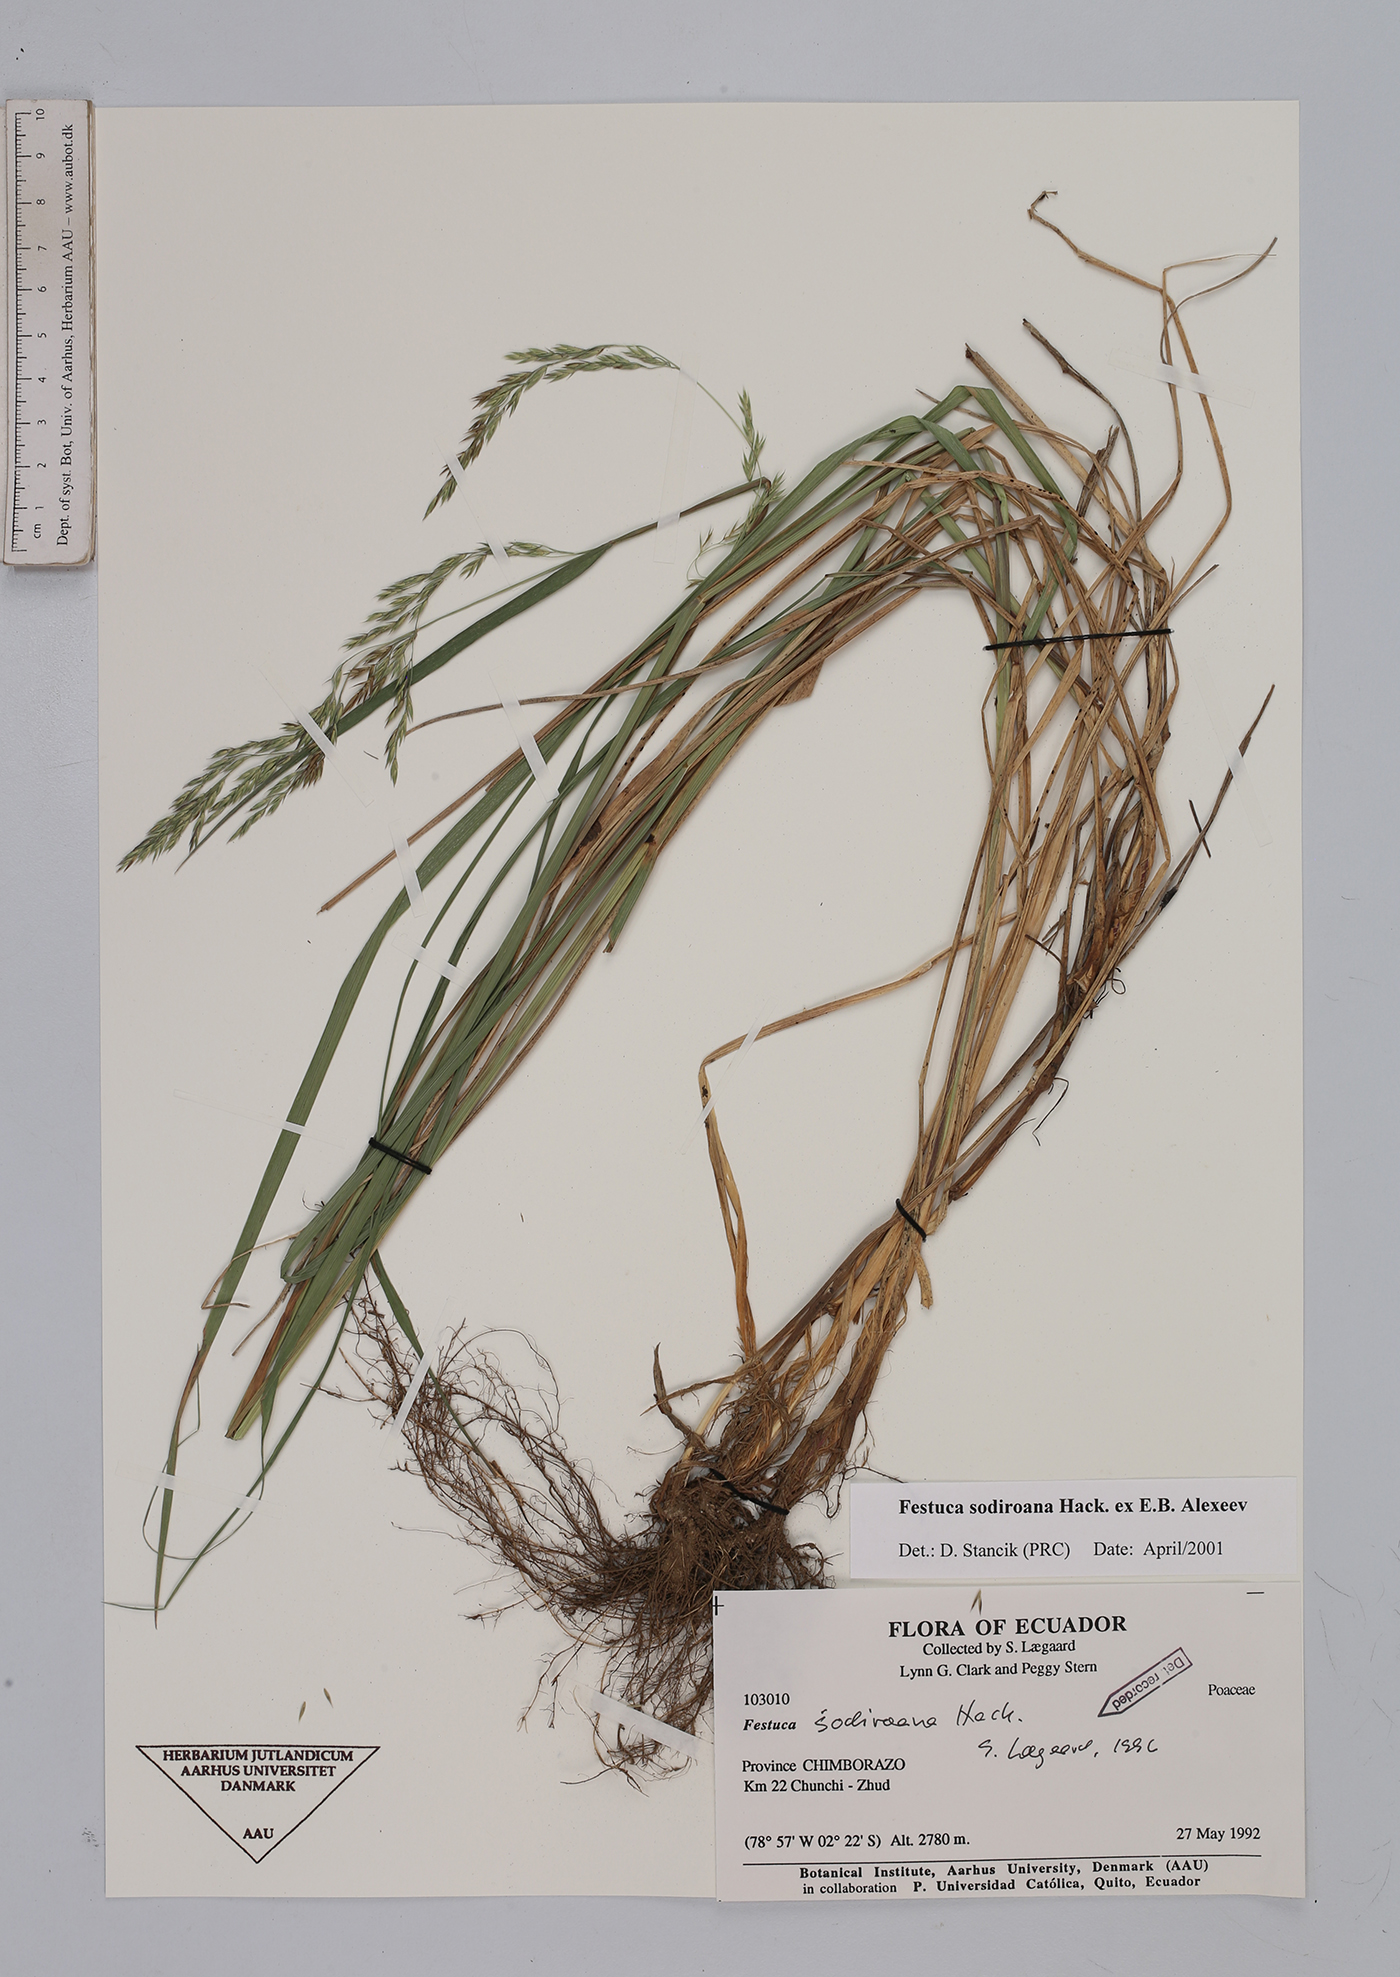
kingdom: Plantae
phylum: Tracheophyta
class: Liliopsida
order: Poales
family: Poaceae
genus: Festuca
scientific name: Festuca sodiroana
